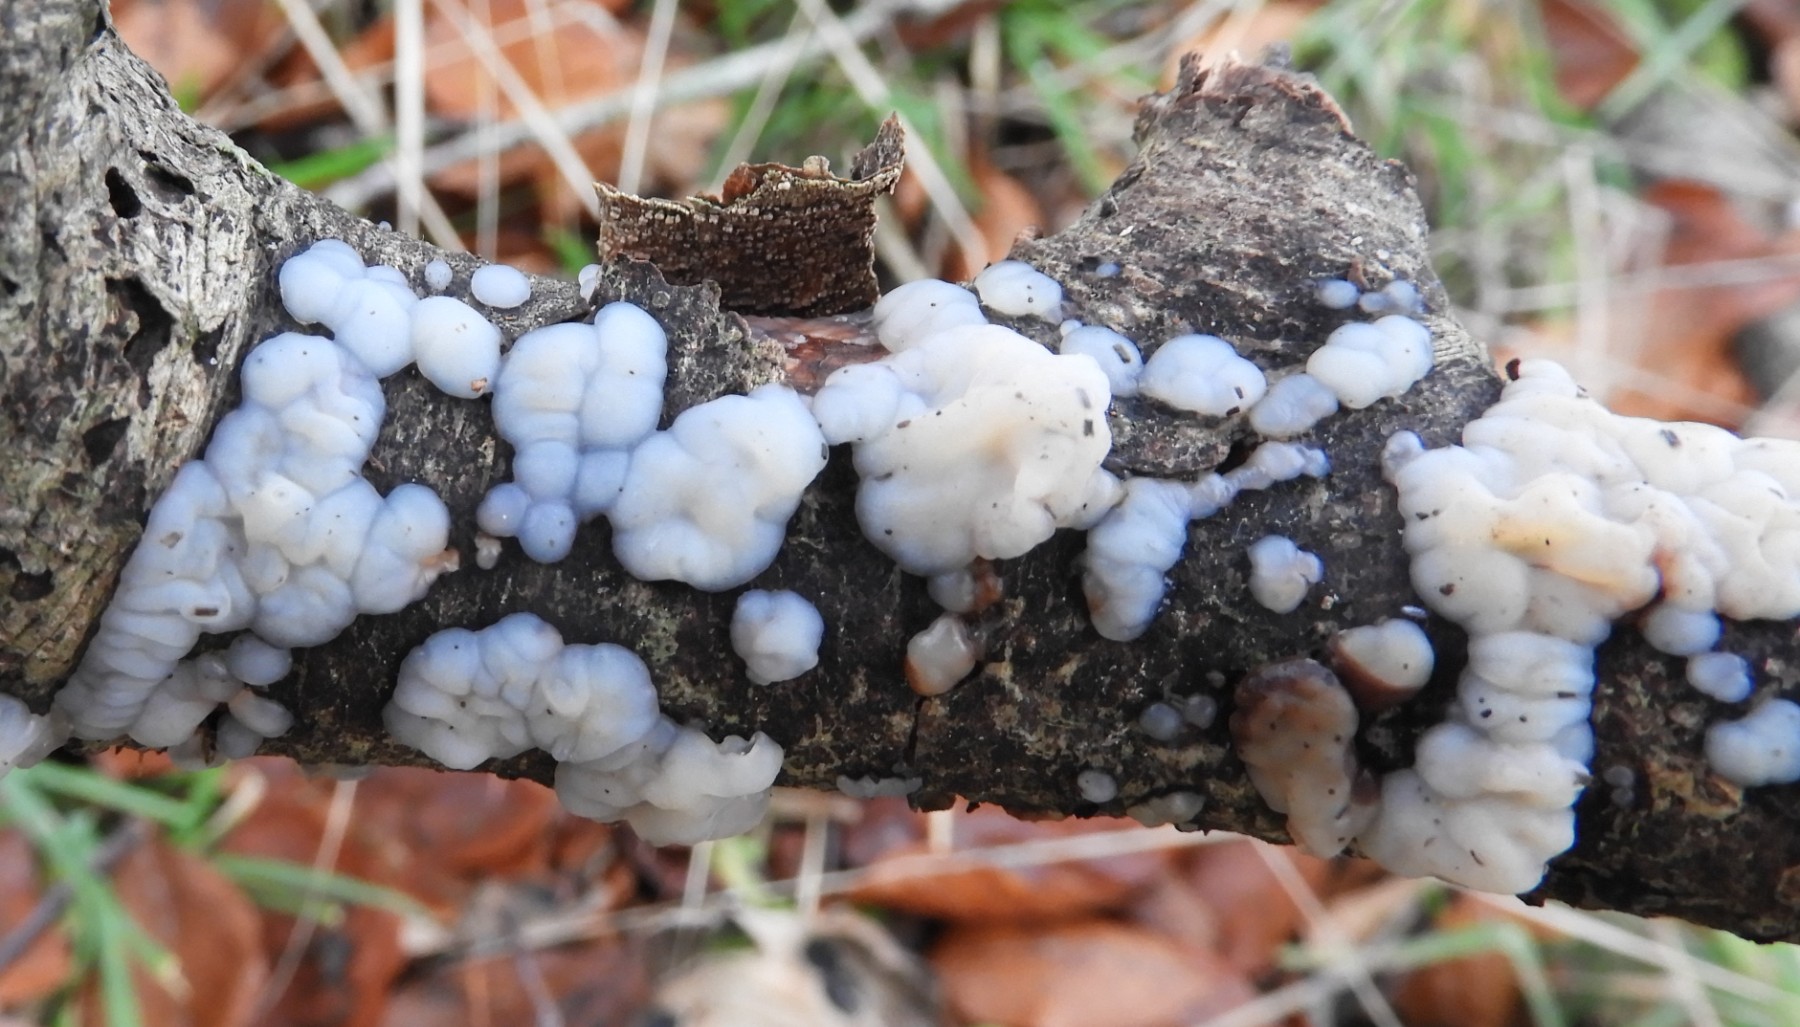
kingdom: Fungi
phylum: Basidiomycota
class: Agaricomycetes
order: Auriculariales
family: Auriculariaceae
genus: Exidia
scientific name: Exidia thuretiana
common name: hvidlig bævretop
